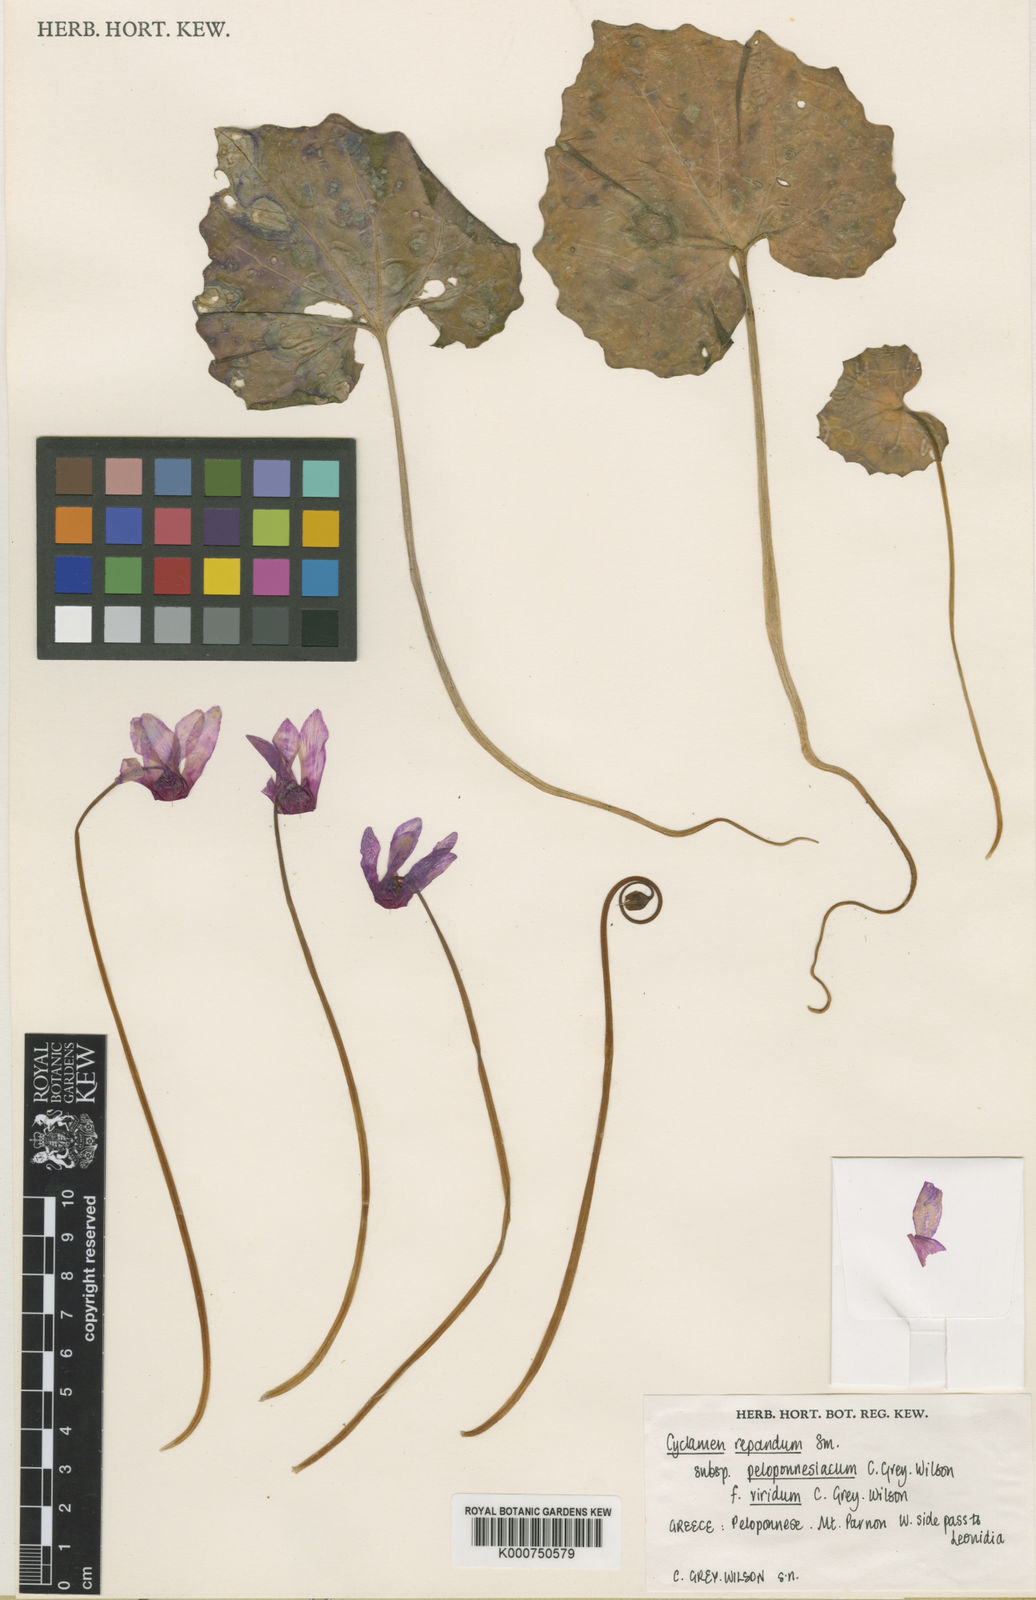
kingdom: Plantae
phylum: Tracheophyta
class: Magnoliopsida
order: Ericales
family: Primulaceae
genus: Cyclamen
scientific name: Cyclamen repandum
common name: Spring sowbread
